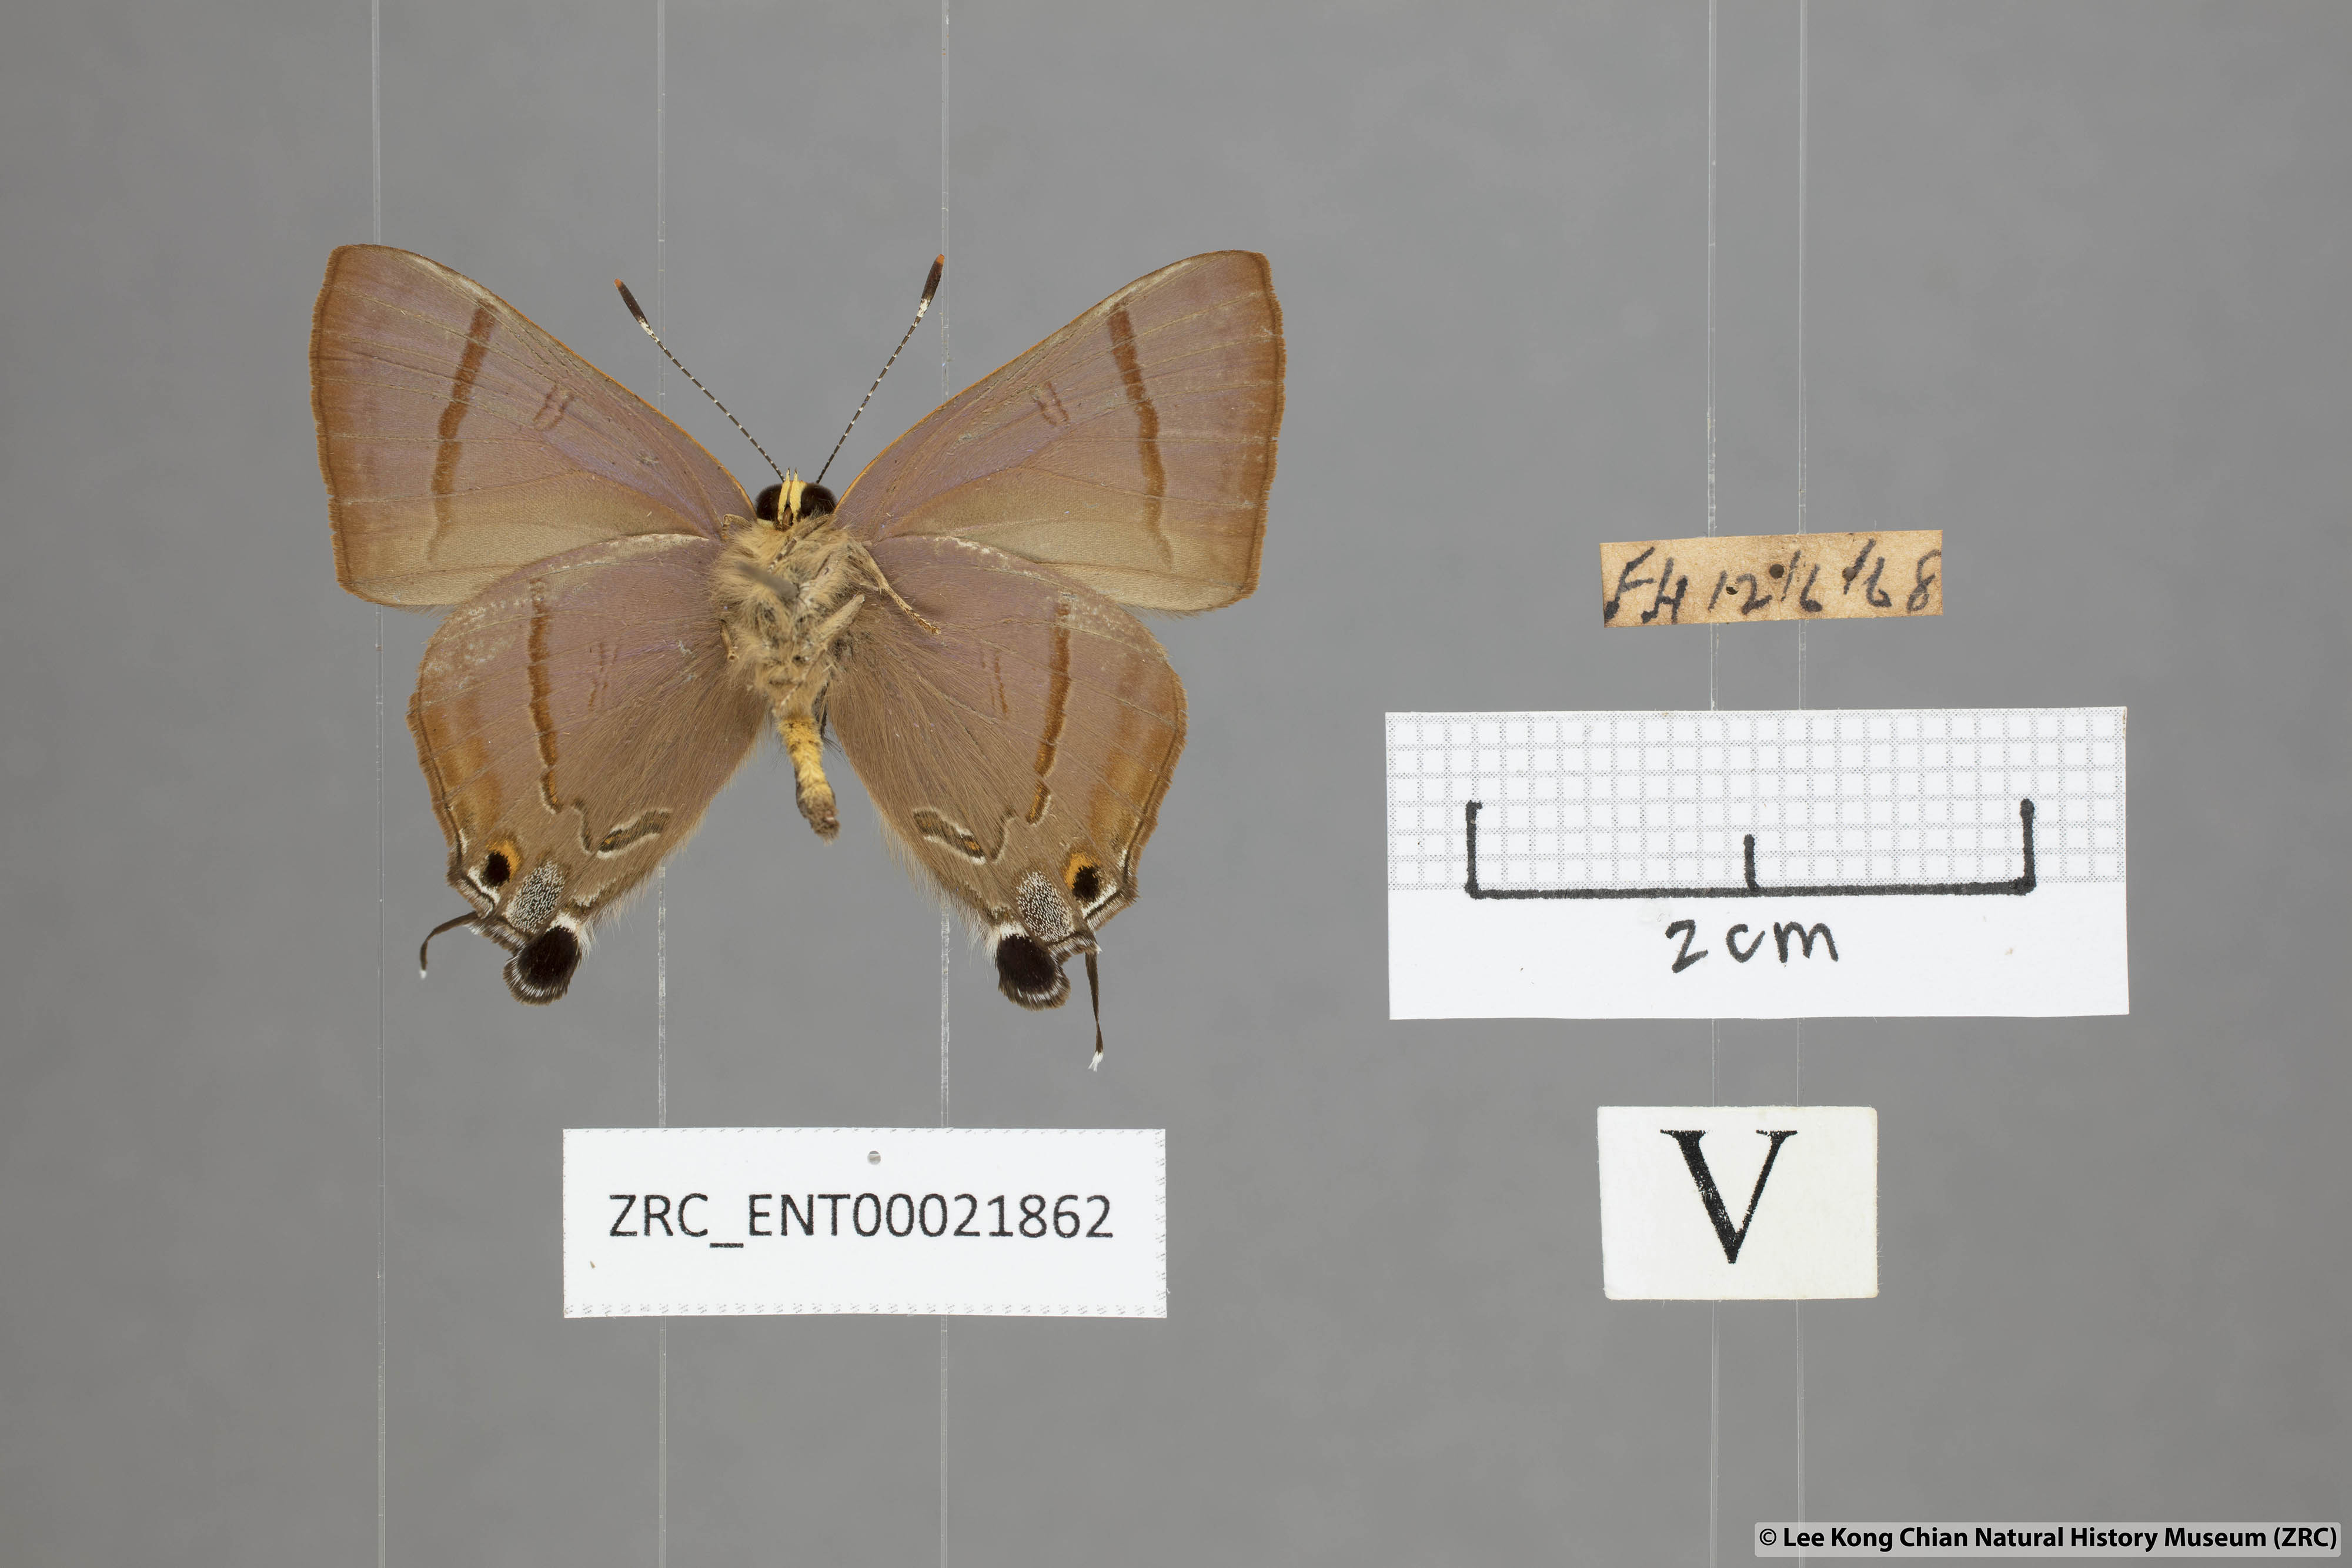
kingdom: Animalia
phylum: Arthropoda
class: Insecta
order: Lepidoptera
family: Lycaenidae
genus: Rapala
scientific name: Rapala nissa
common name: Common flash
